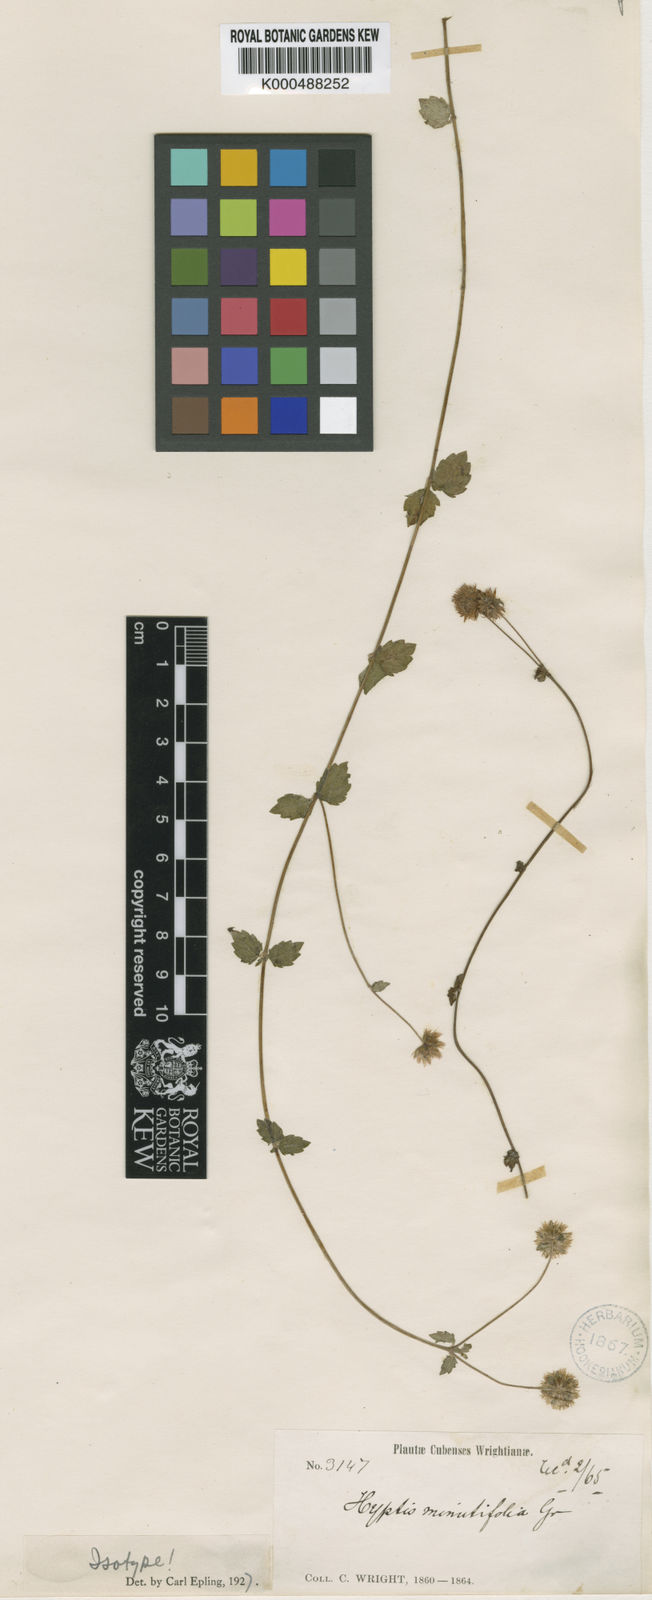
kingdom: Plantae
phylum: Tracheophyta
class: Magnoliopsida
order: Lamiales
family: Lamiaceae
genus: Hyptis
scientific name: Hyptis armillata
